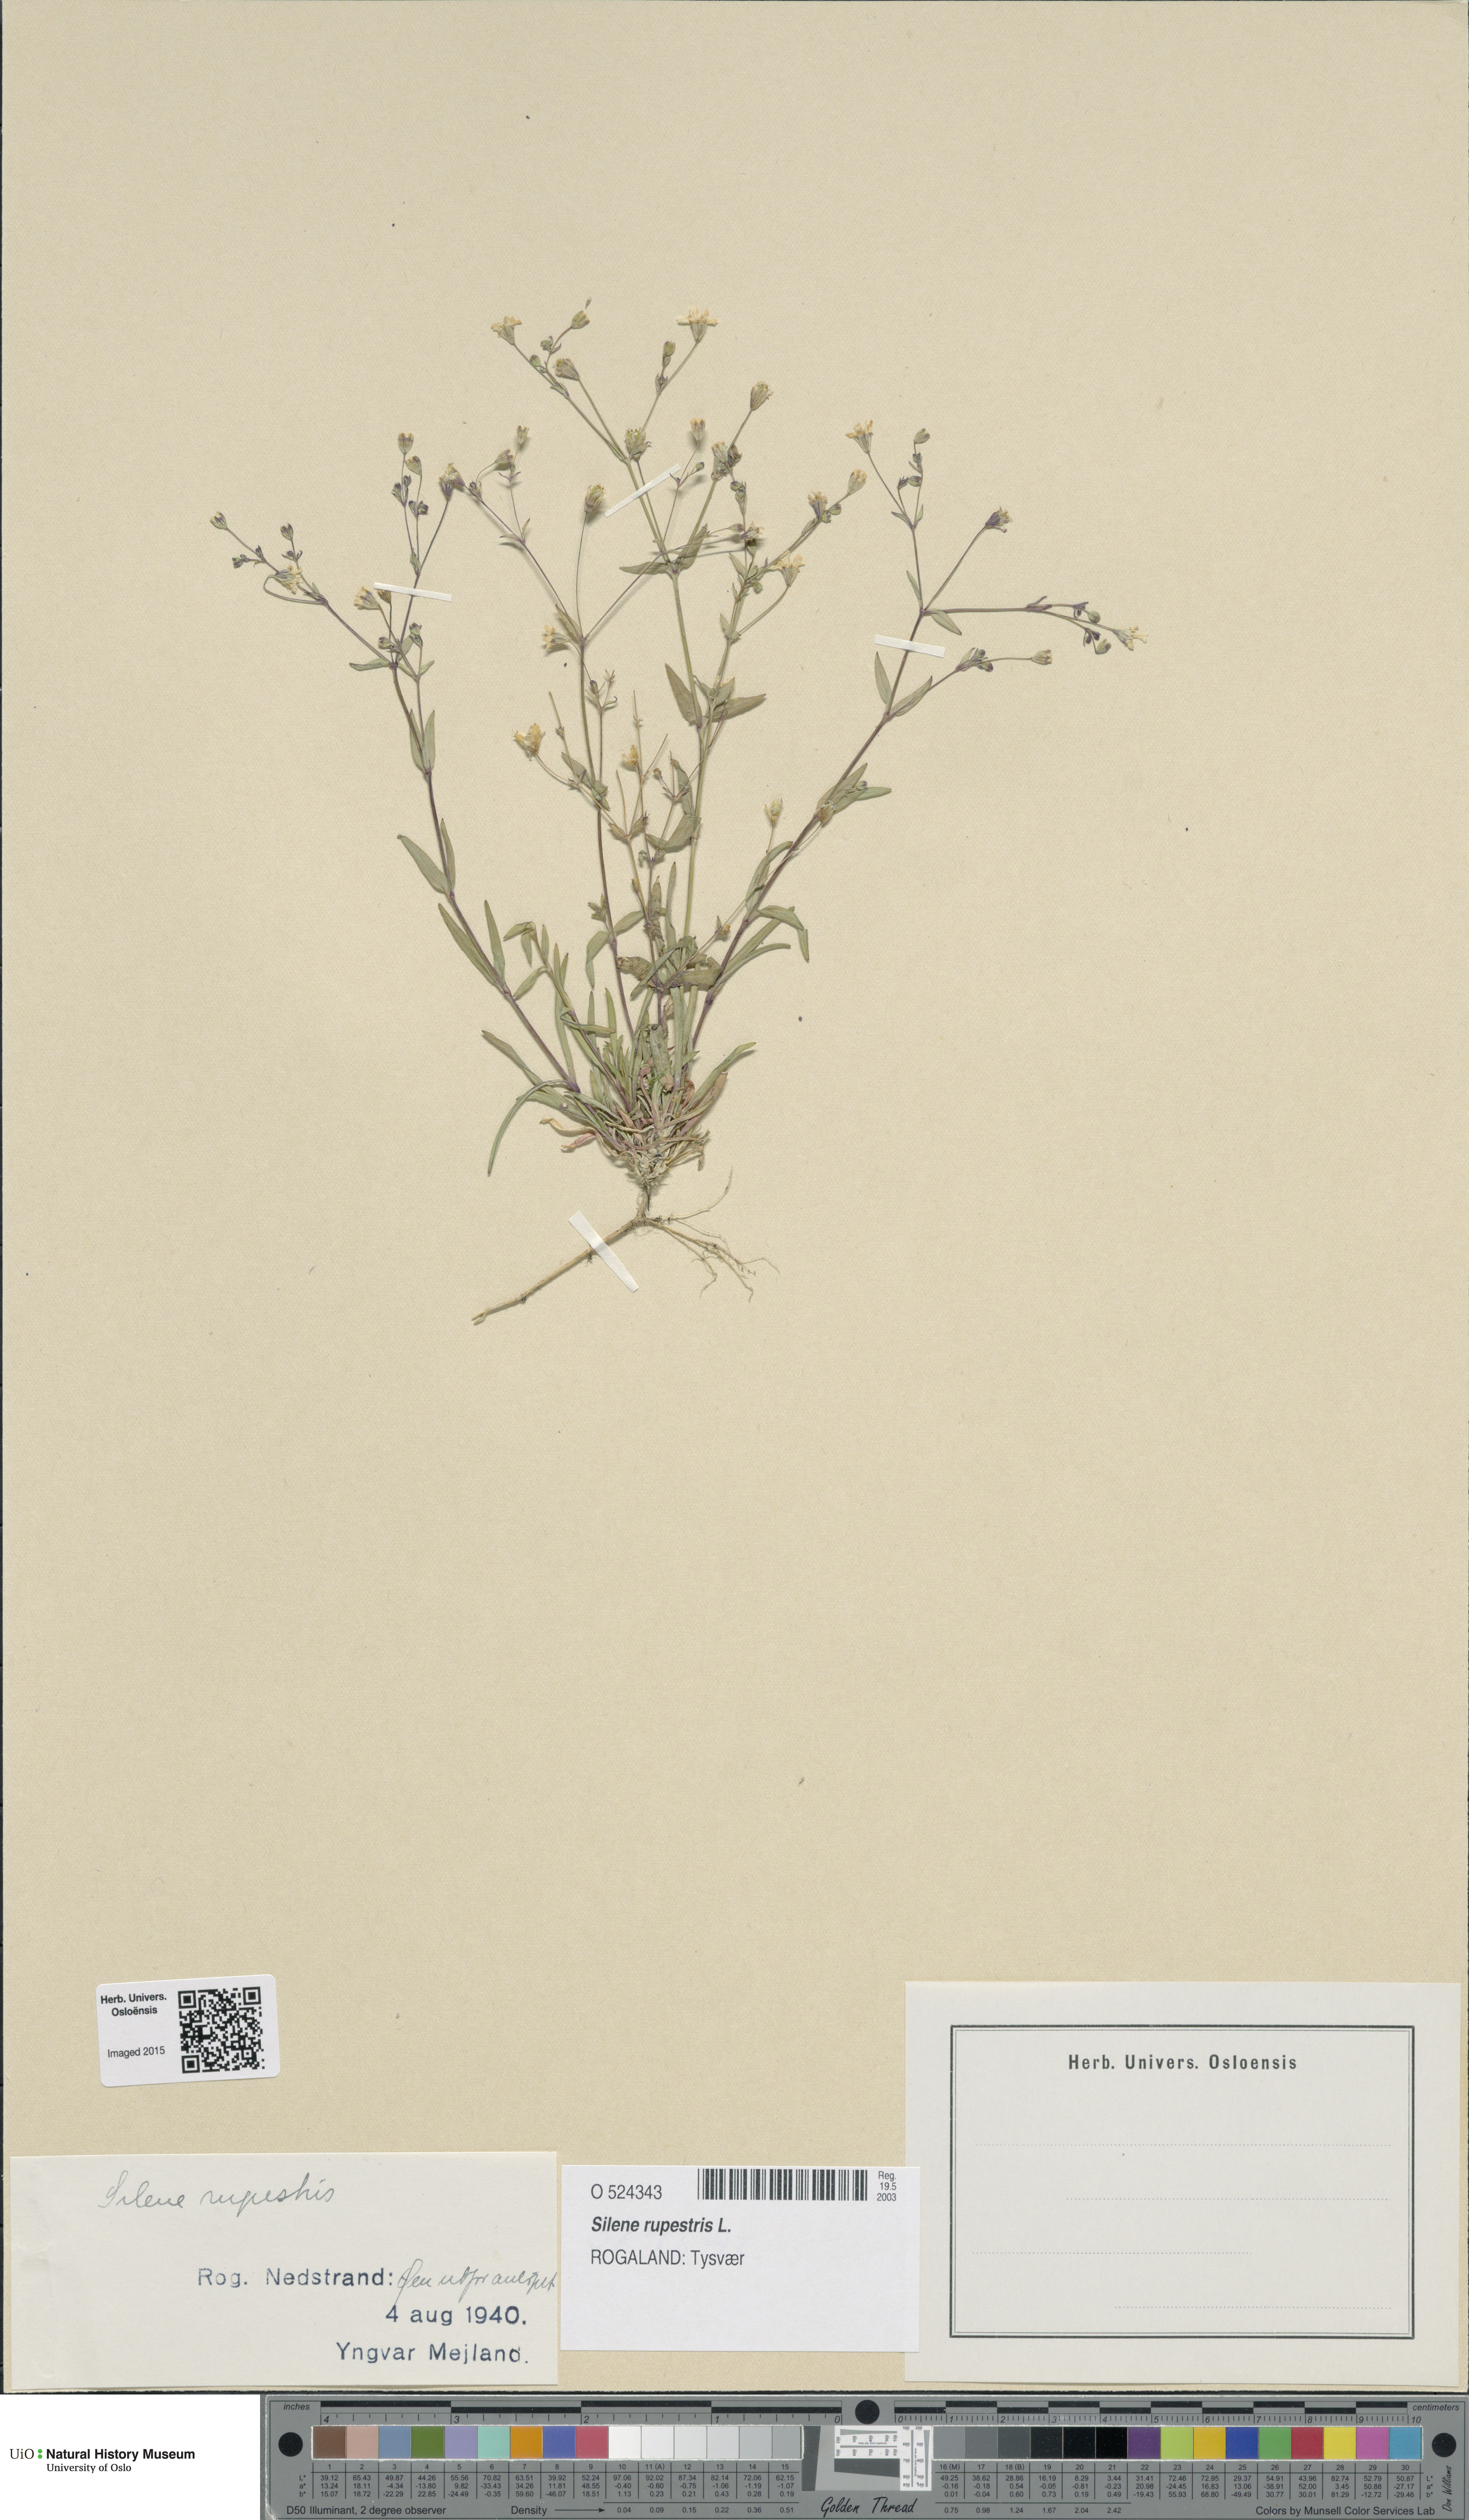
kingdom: Plantae
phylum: Tracheophyta
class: Magnoliopsida
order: Caryophyllales
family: Caryophyllaceae
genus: Atocion
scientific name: Atocion rupestre
